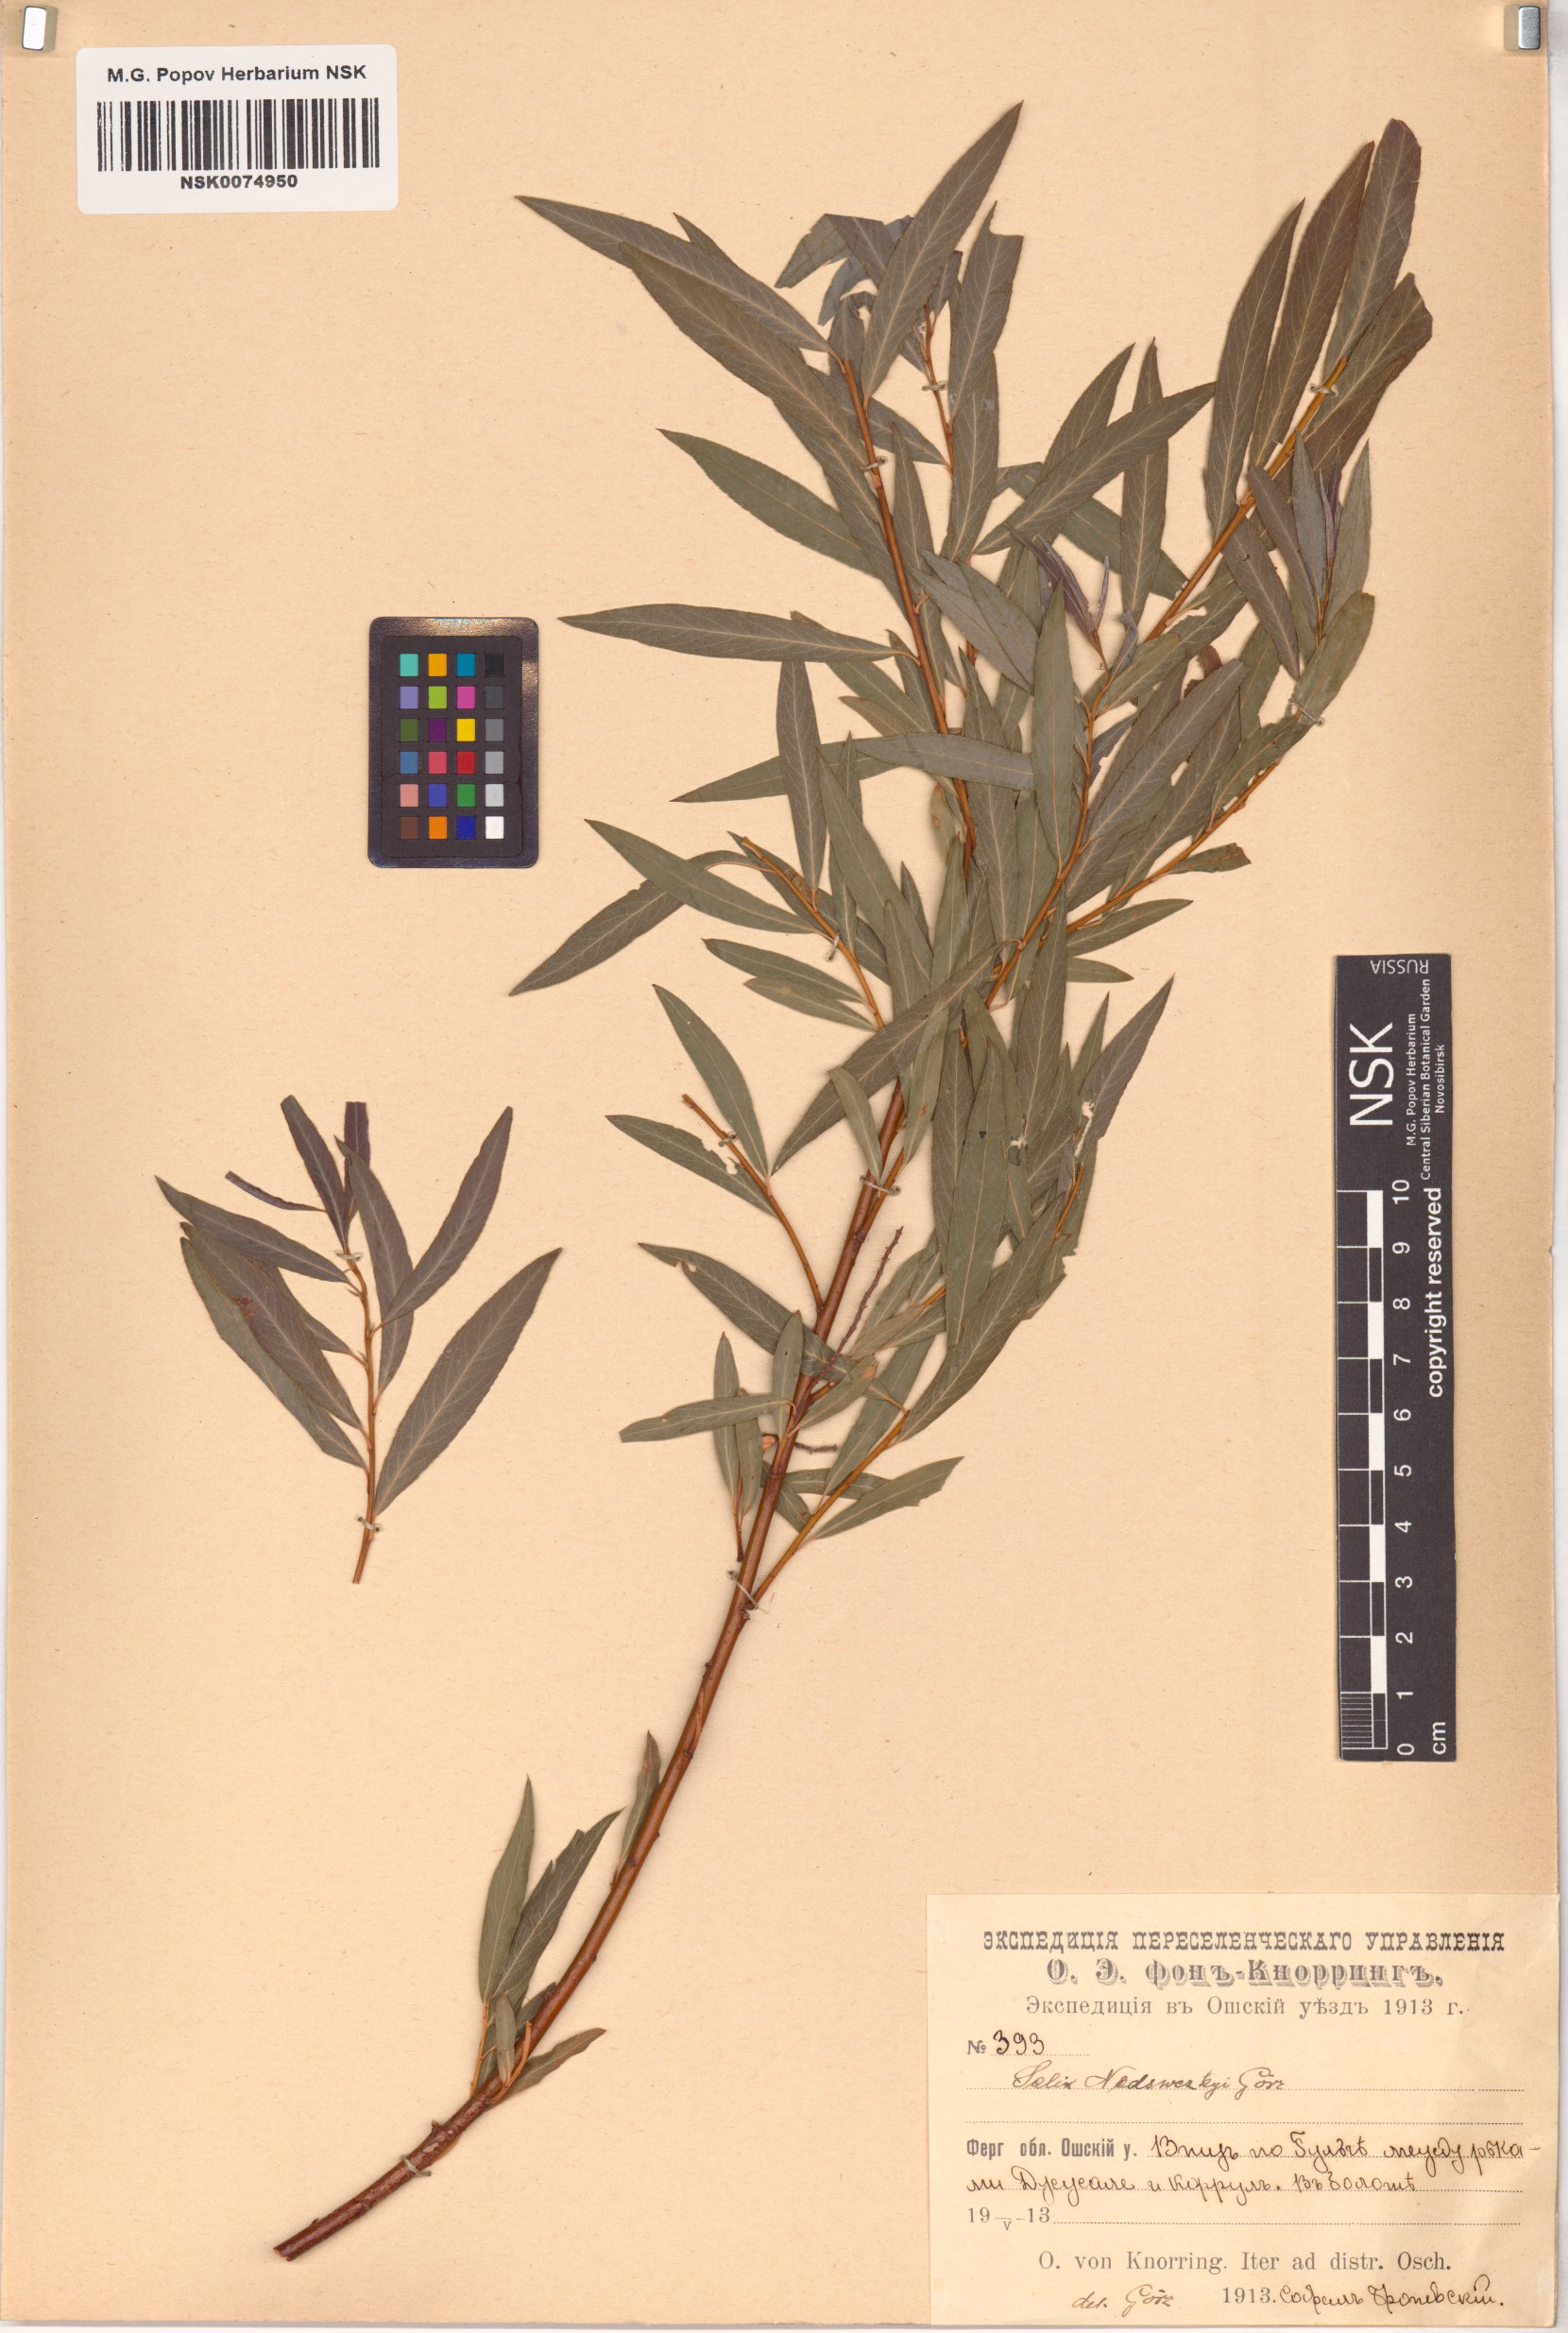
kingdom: Plantae
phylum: Tracheophyta
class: Magnoliopsida
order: Malpighiales
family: Salicaceae
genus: Salix
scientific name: Salix capusii
